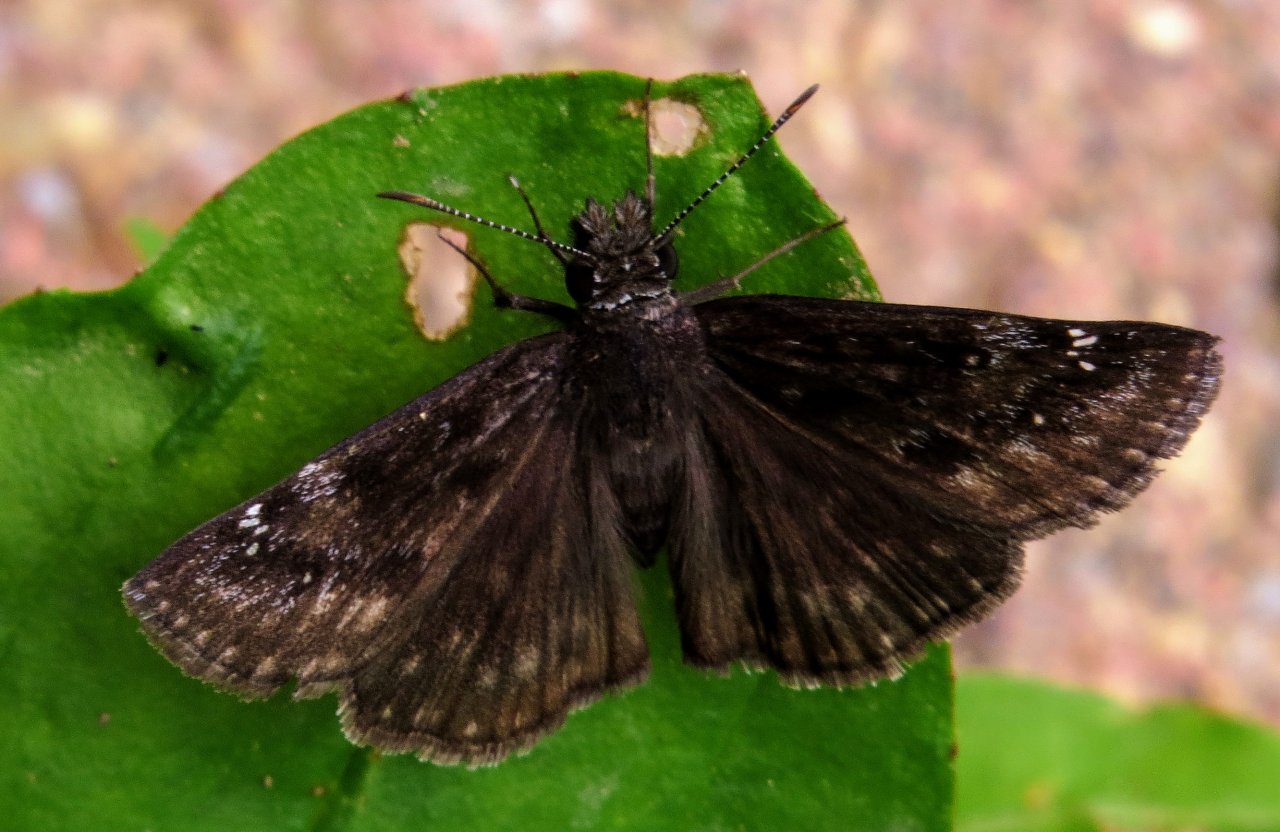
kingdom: Animalia
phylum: Arthropoda
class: Insecta
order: Lepidoptera
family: Hesperiidae
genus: Gesta
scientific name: Gesta
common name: Wild Indigo Duskywing
